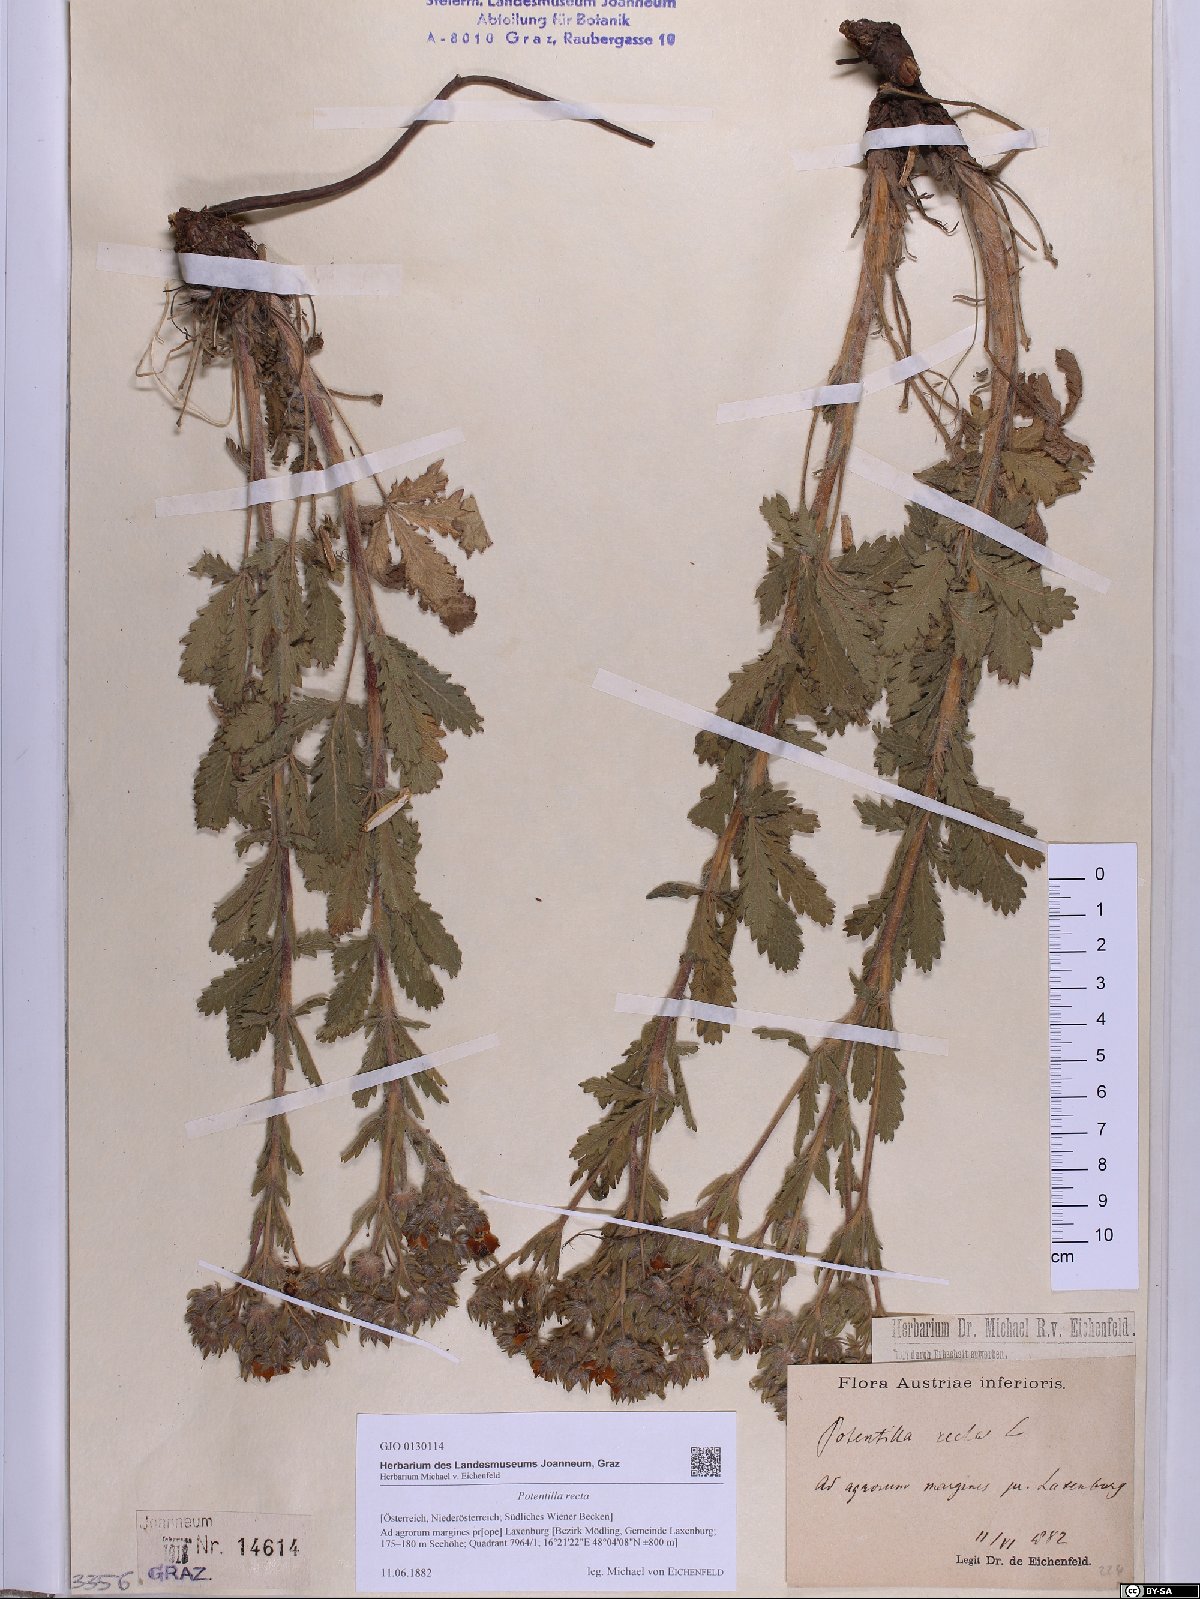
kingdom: Plantae
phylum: Tracheophyta
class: Magnoliopsida
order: Rosales
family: Rosaceae
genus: Potentilla
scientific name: Potentilla recta
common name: Sulphur cinquefoil
